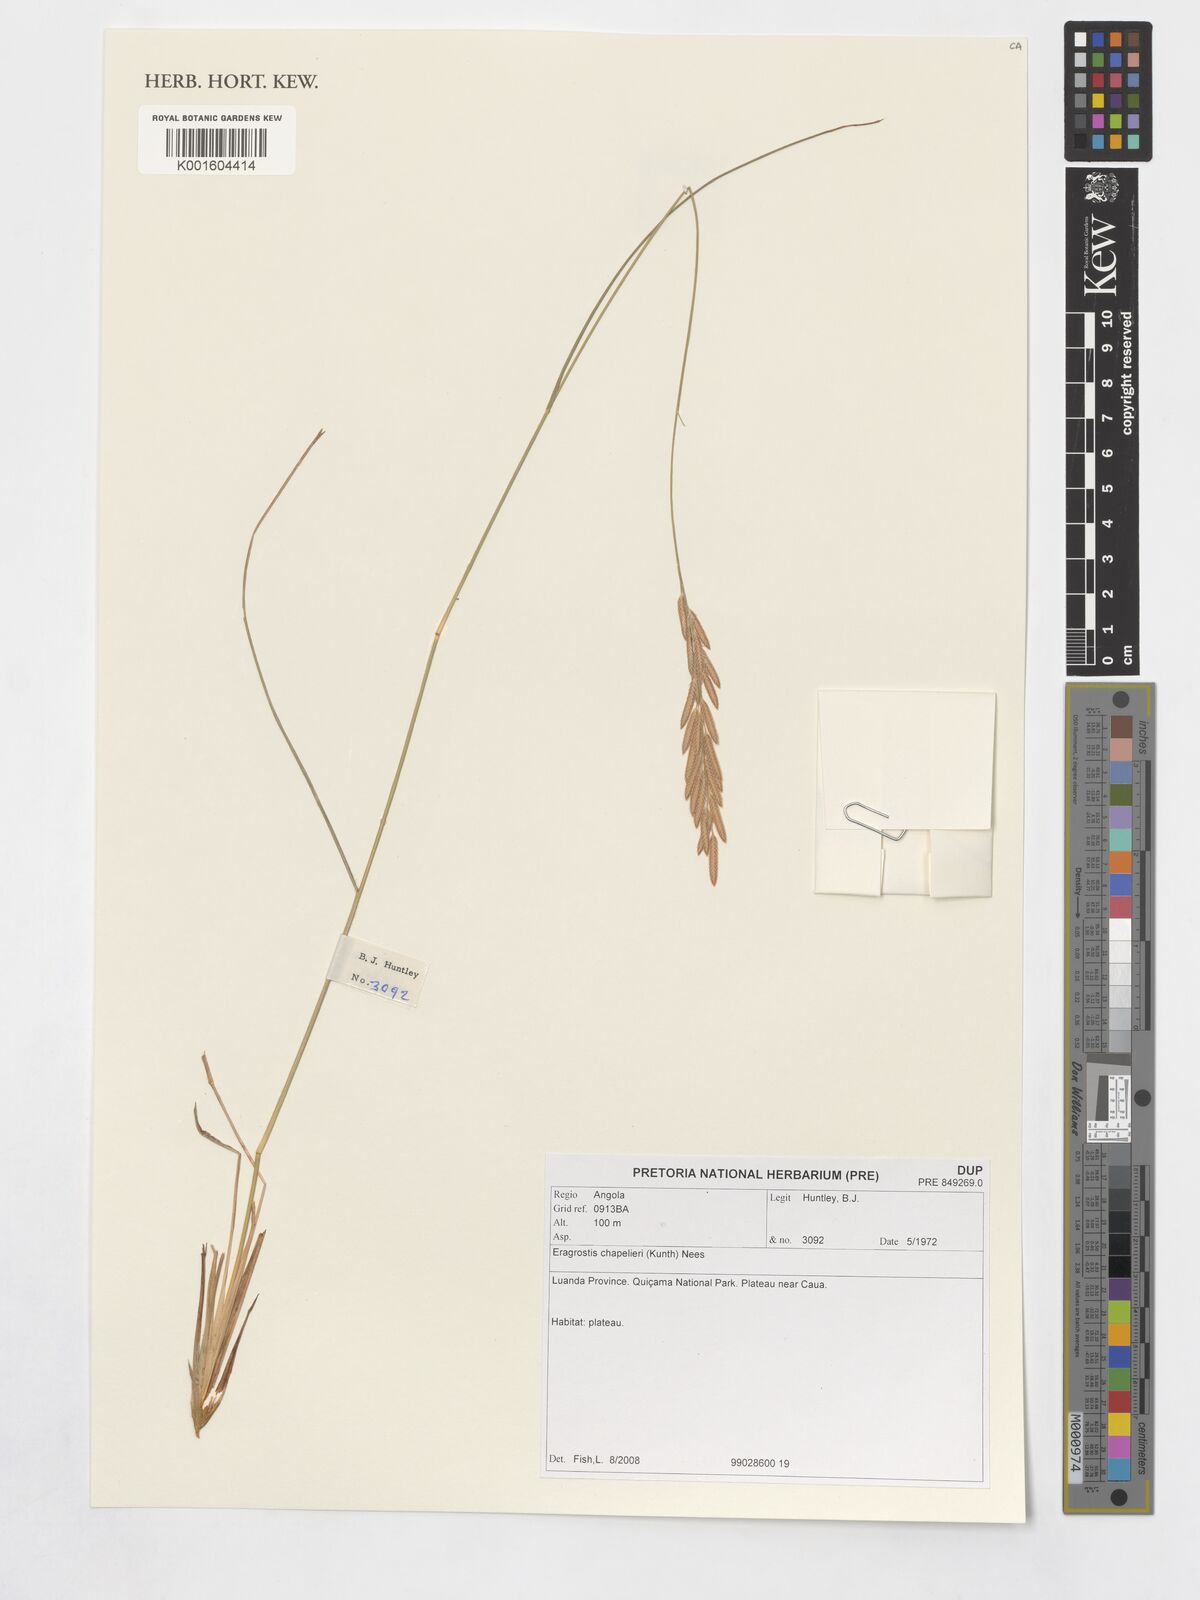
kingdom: Plantae
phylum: Tracheophyta
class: Liliopsida
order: Poales
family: Poaceae
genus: Eragrostis
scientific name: Eragrostis chapelieri
